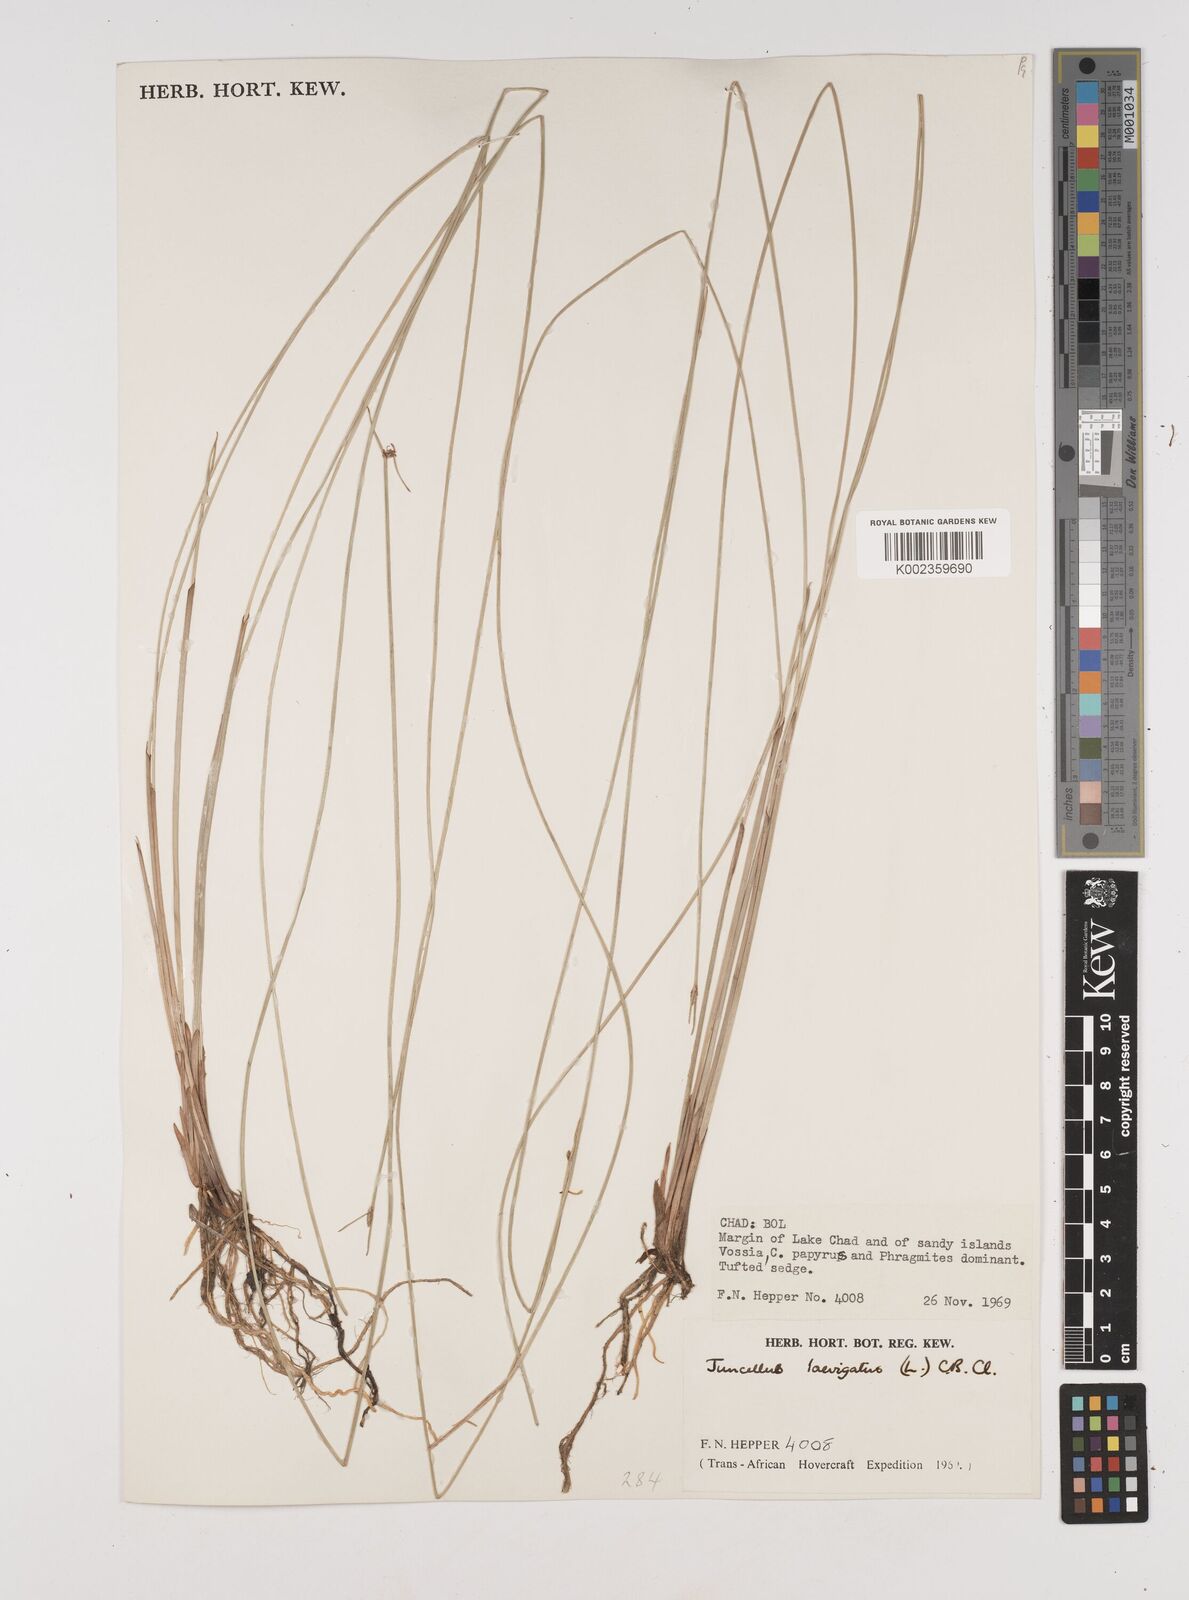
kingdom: Plantae
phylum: Tracheophyta
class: Liliopsida
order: Poales
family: Cyperaceae
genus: Cyperus
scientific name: Cyperus laevigatus
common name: Smooth flat sedge
